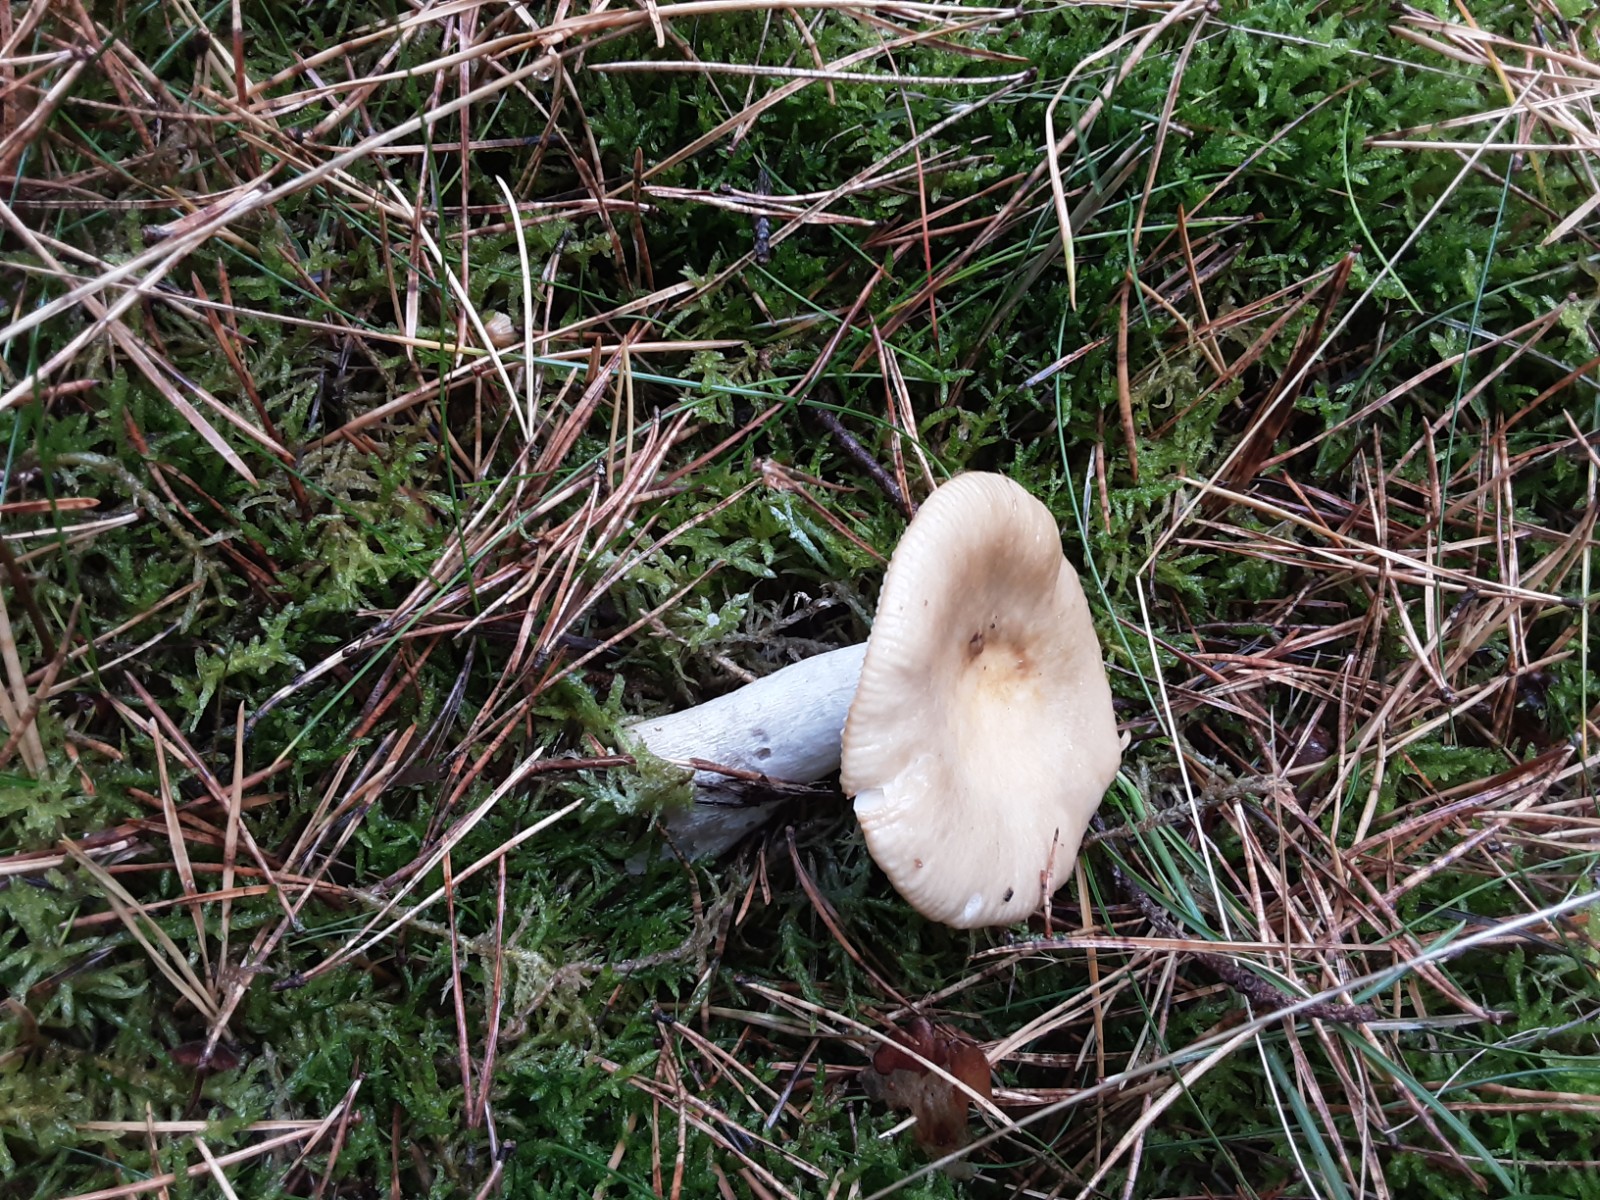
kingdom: Fungi
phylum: Basidiomycota
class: Agaricomycetes
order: Russulales
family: Russulaceae
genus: Russula
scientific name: Russula ochroleuca
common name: okkergul skørhat
